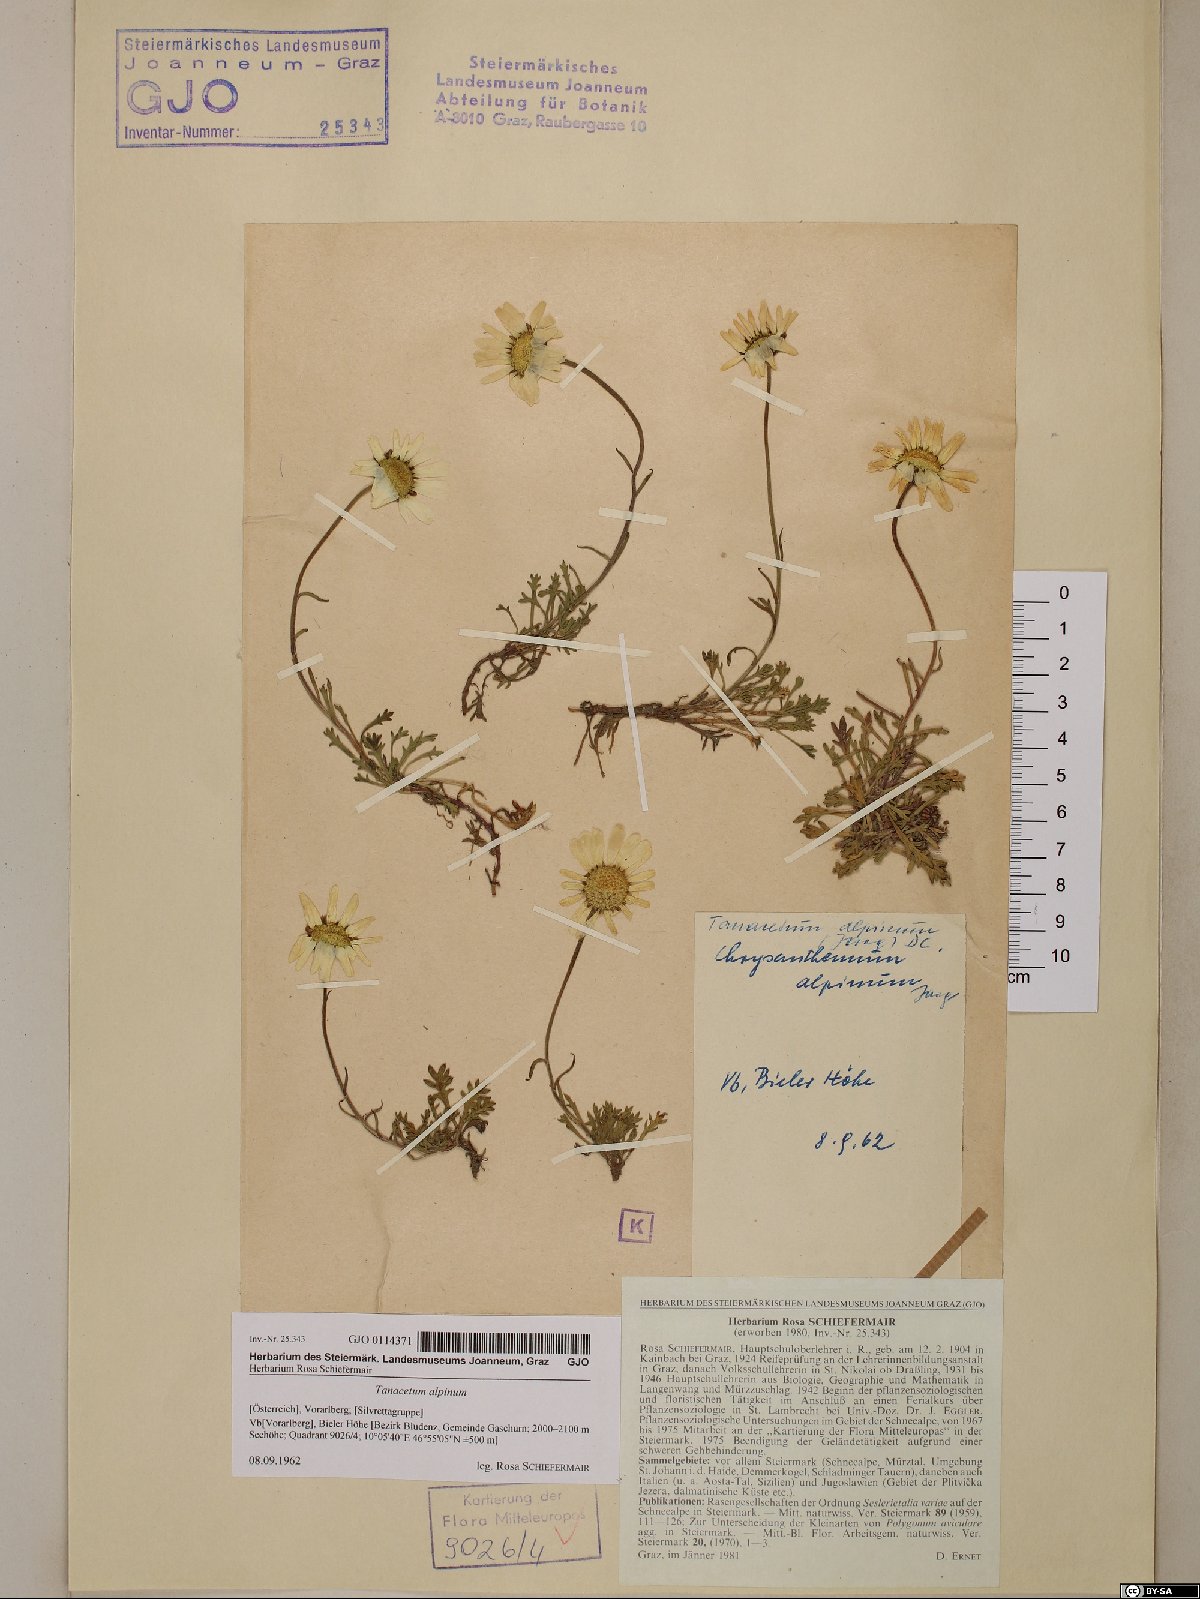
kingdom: Plantae
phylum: Tracheophyta
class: Magnoliopsida
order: Asterales
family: Asteraceae
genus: Leucanthemopsis
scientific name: Leucanthemopsis alpina
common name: Alpine moon daisy
